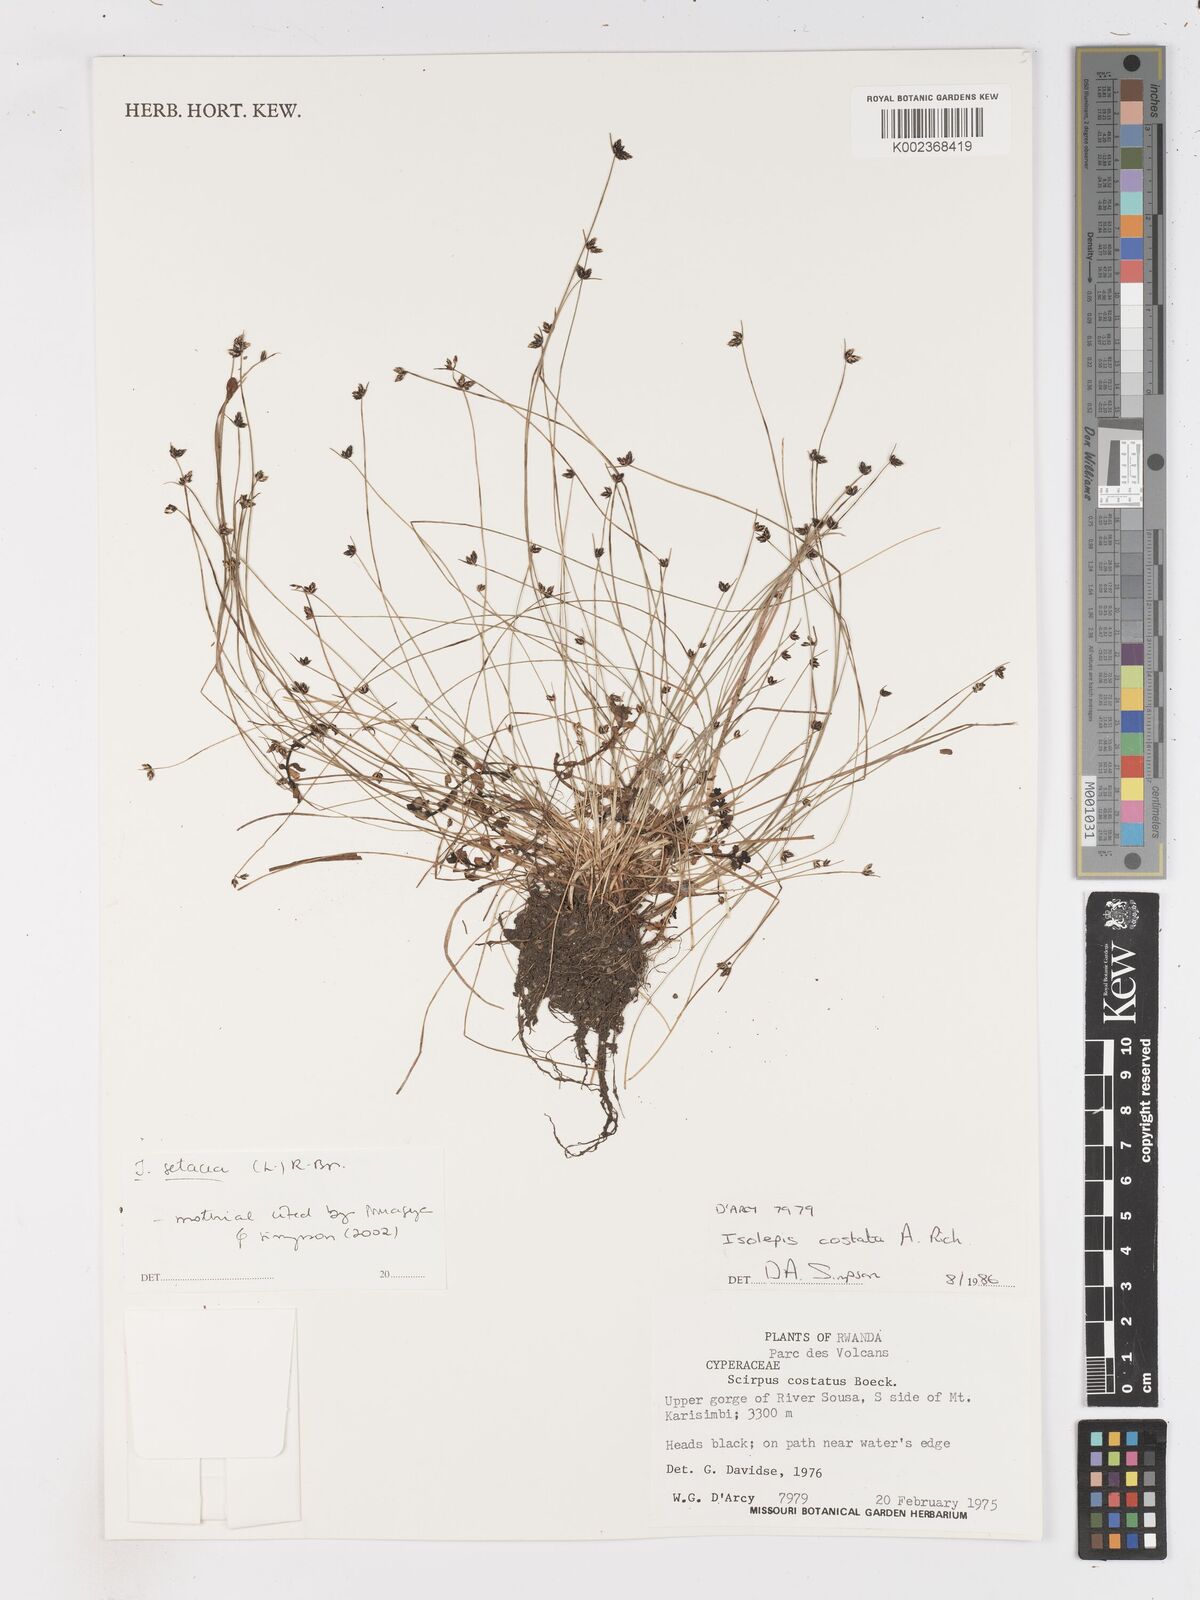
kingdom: Plantae
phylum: Tracheophyta
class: Liliopsida
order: Poales
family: Cyperaceae
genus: Isolepis
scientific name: Isolepis setacea
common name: Bristle club-rush
